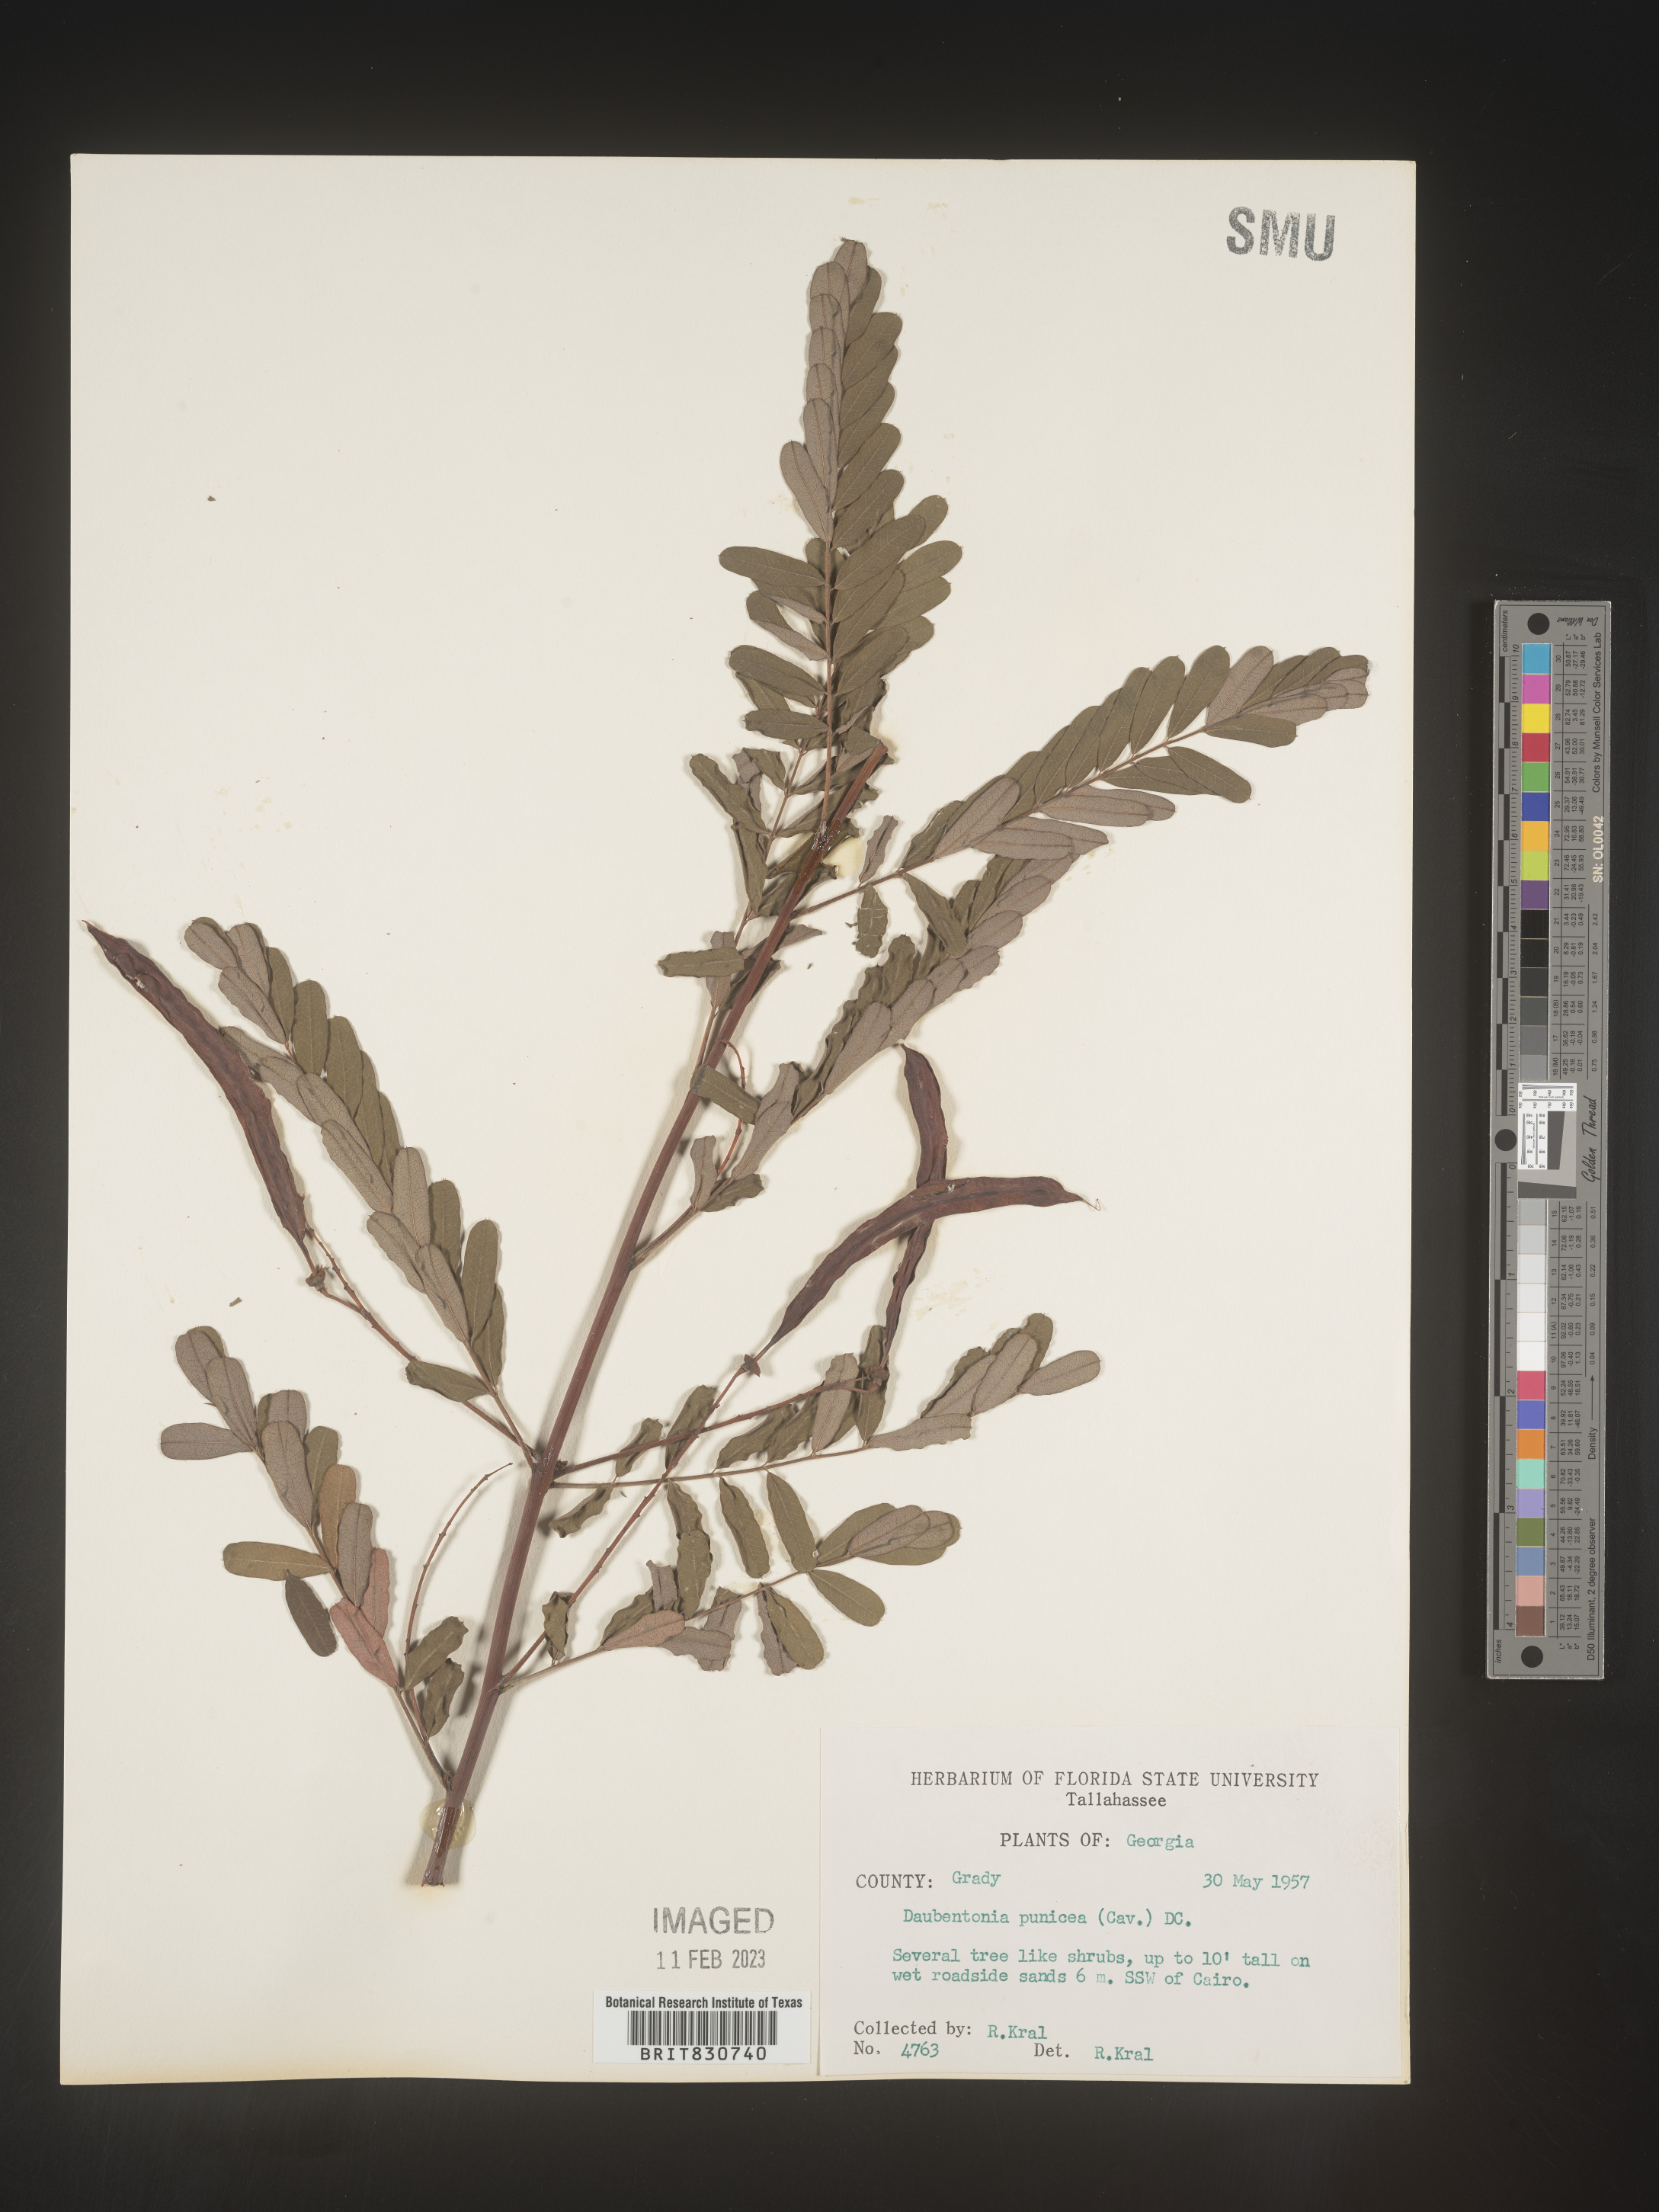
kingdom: Plantae
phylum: Tracheophyta
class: Magnoliopsida
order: Fabales
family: Fabaceae
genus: Sesbania
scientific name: Sesbania punicea
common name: Rattlebox
